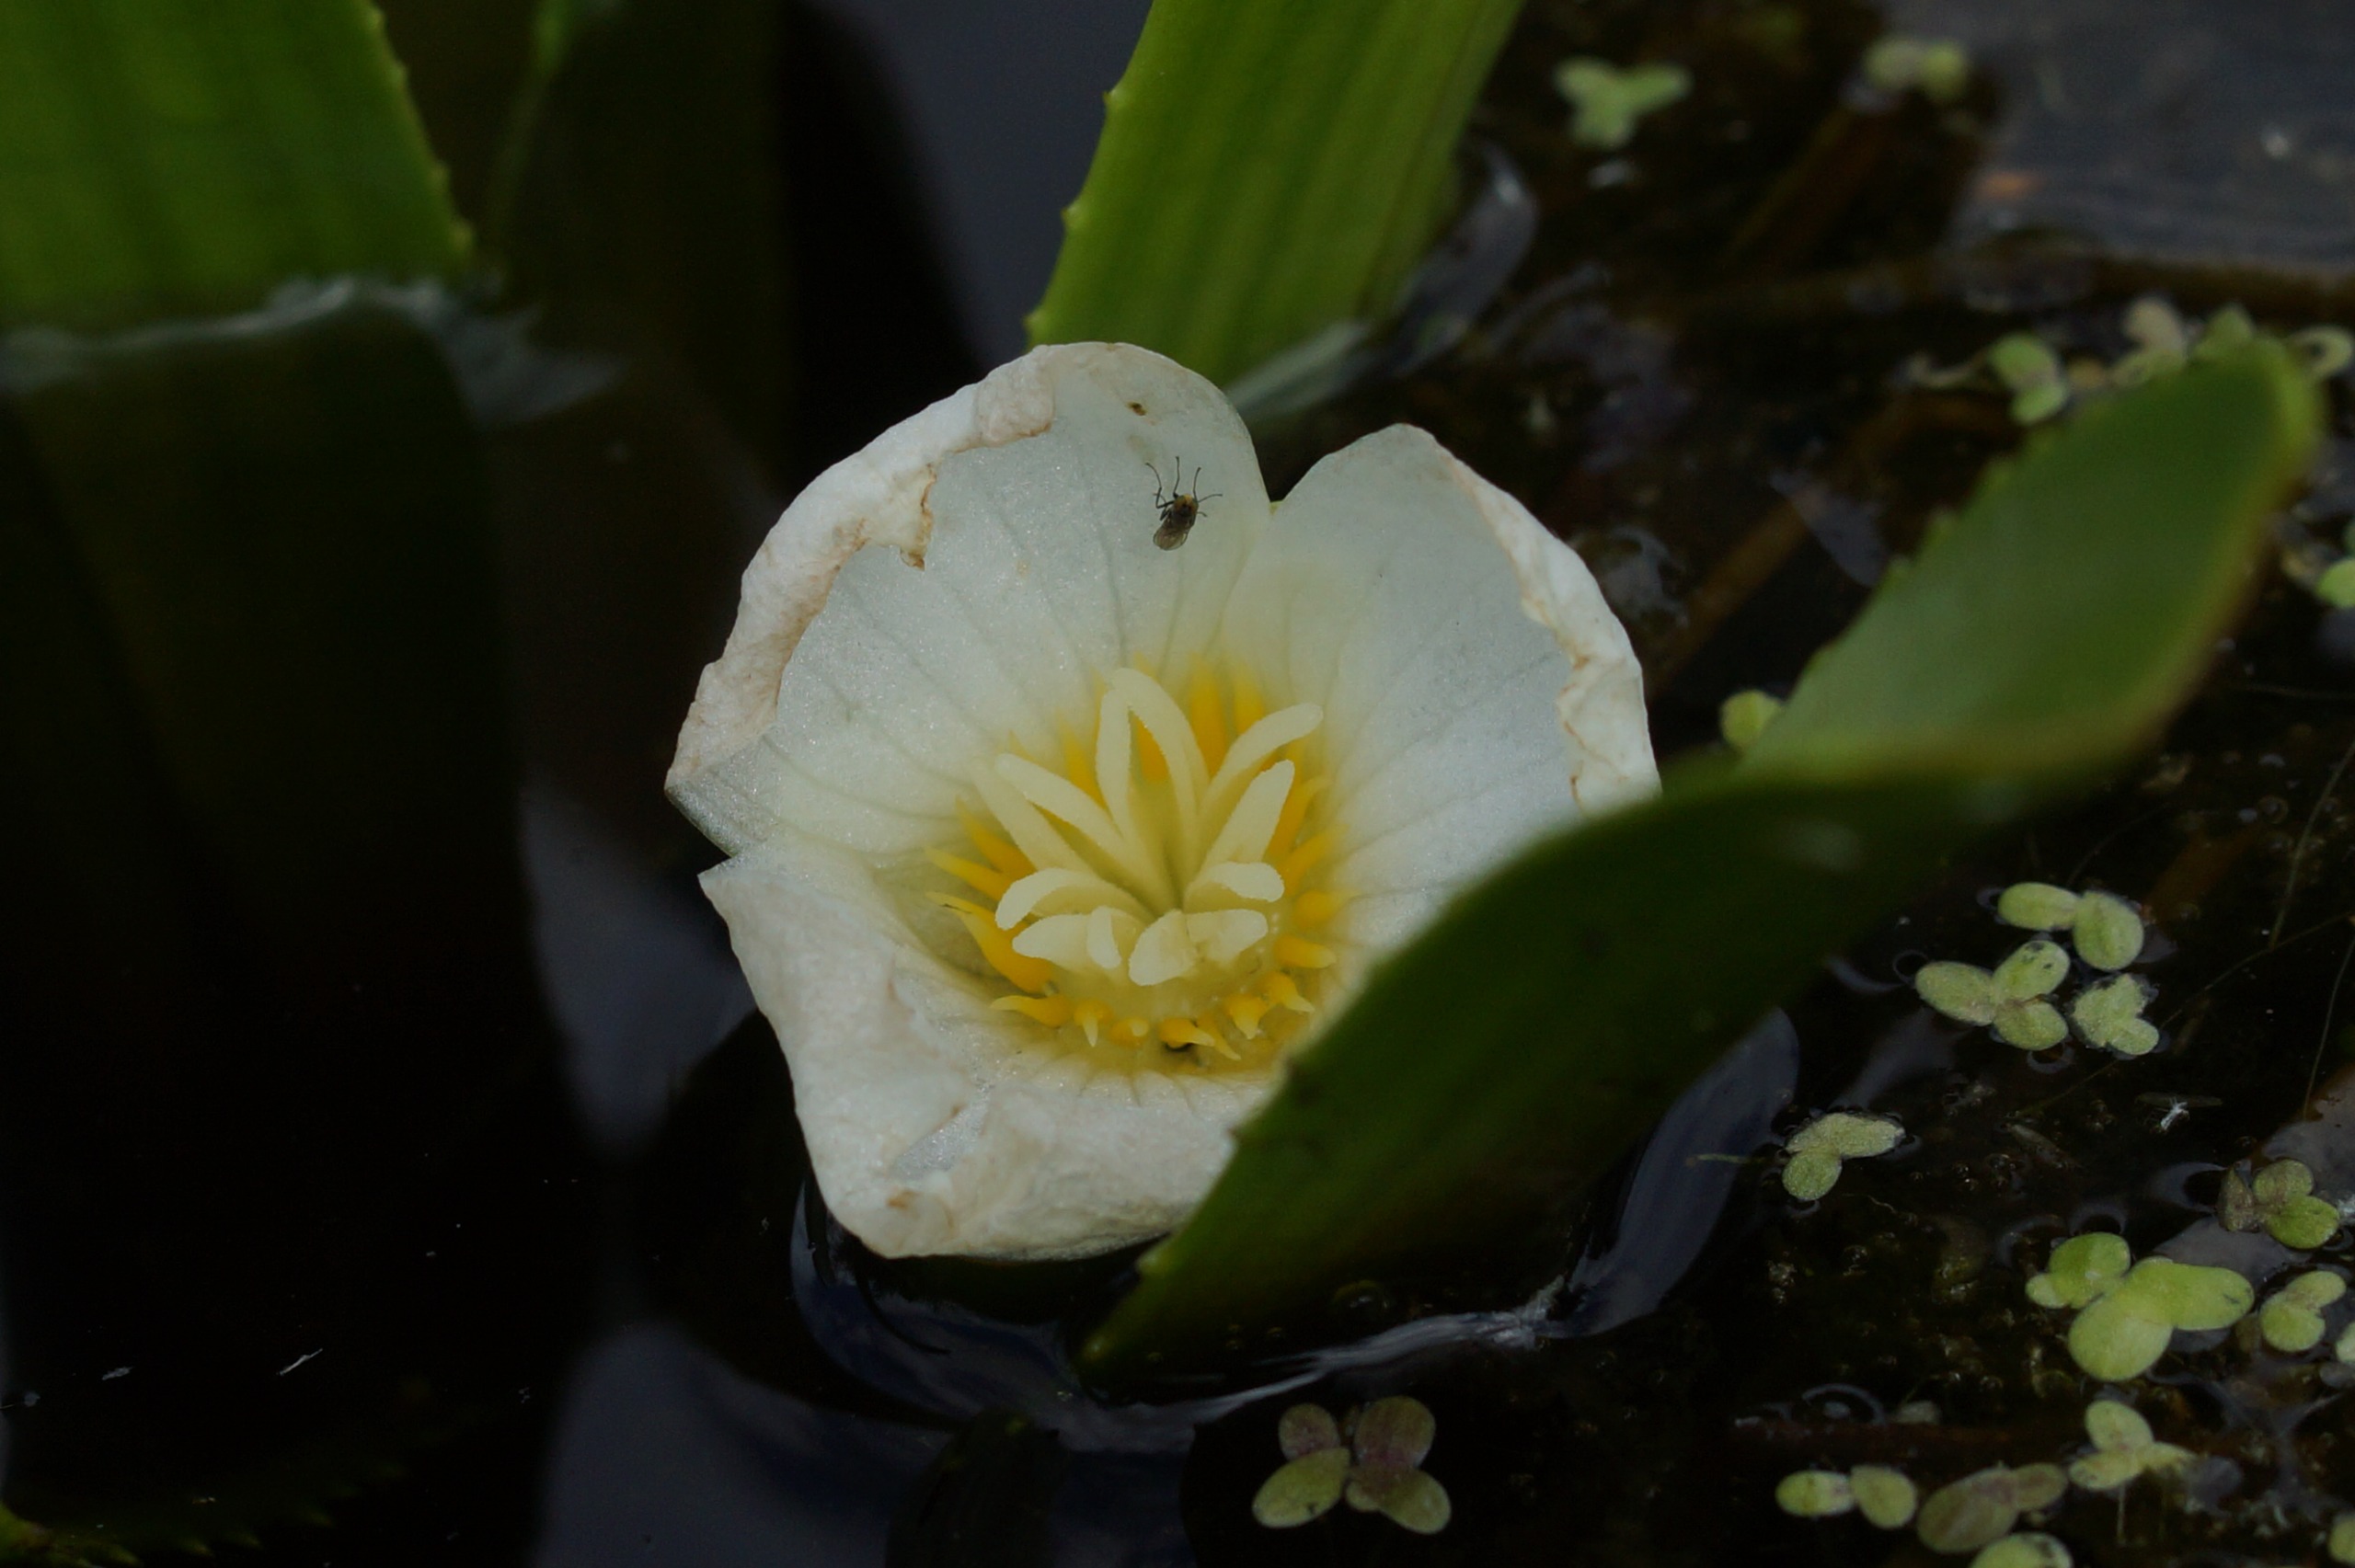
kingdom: Plantae
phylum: Tracheophyta
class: Liliopsida
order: Alismatales
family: Hydrocharitaceae
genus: Stratiotes
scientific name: Stratiotes aloides
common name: Krebseklo
